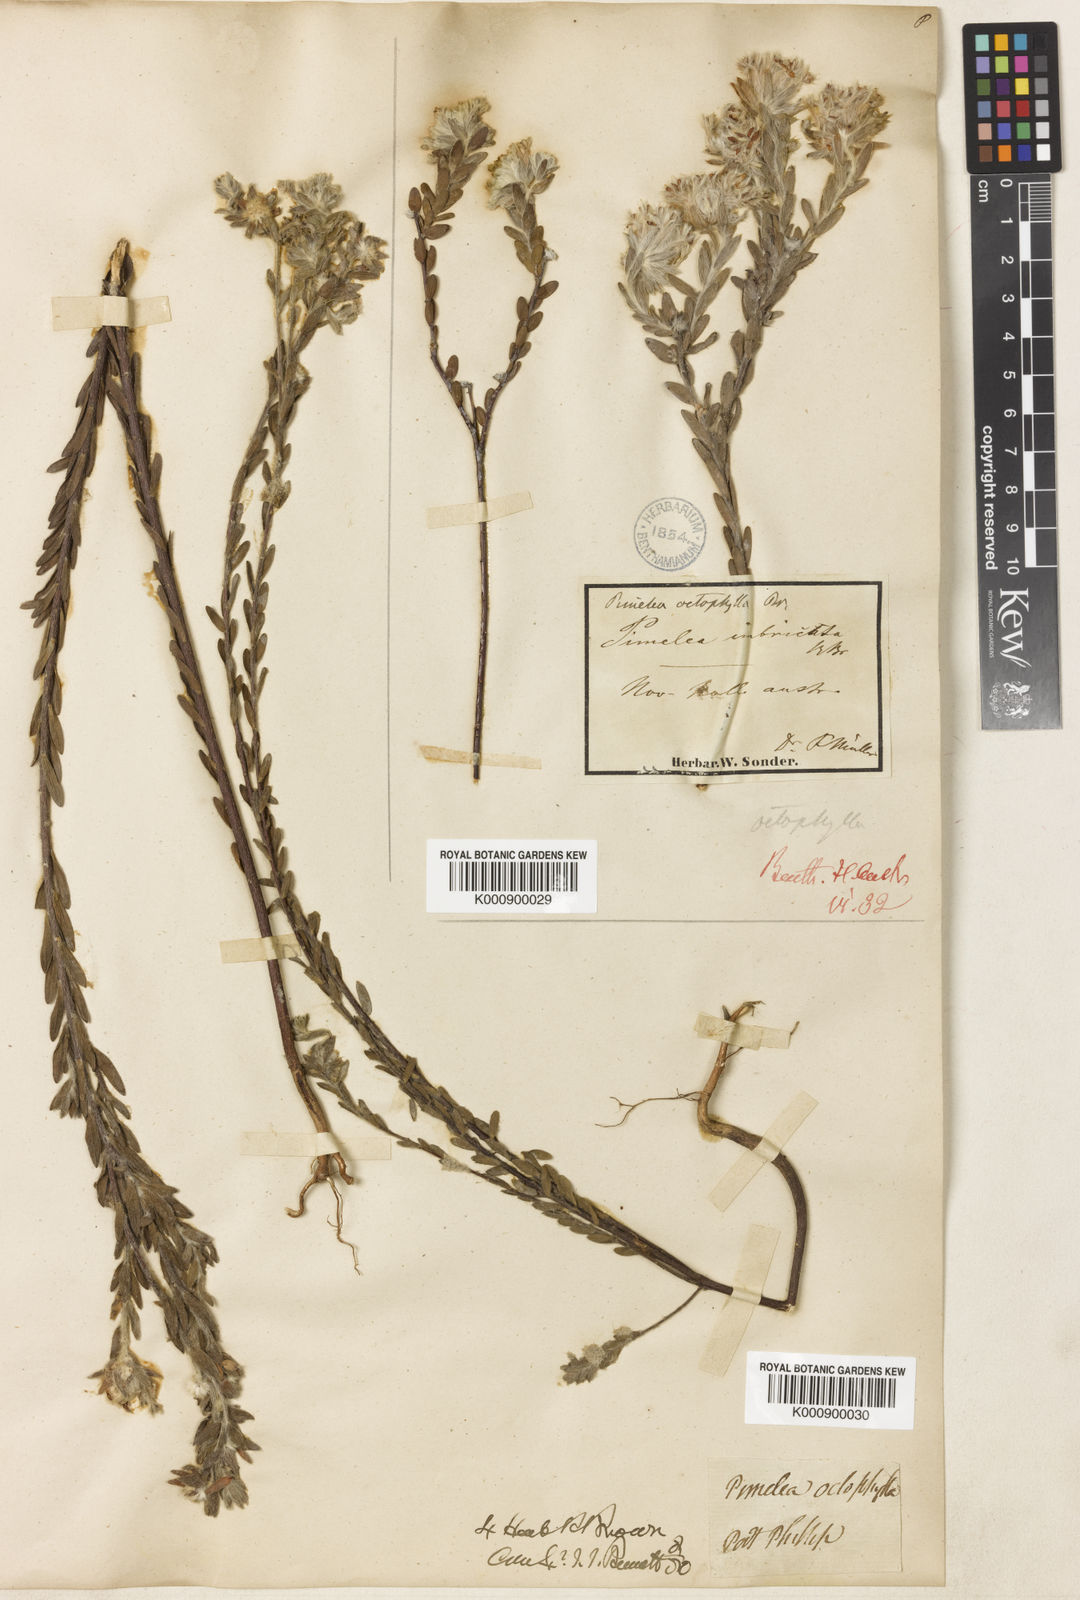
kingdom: Plantae
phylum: Tracheophyta
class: Magnoliopsida
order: Malvales
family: Thymelaeaceae
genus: Pimelea
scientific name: Pimelea octophylla
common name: Woolly riceflower
